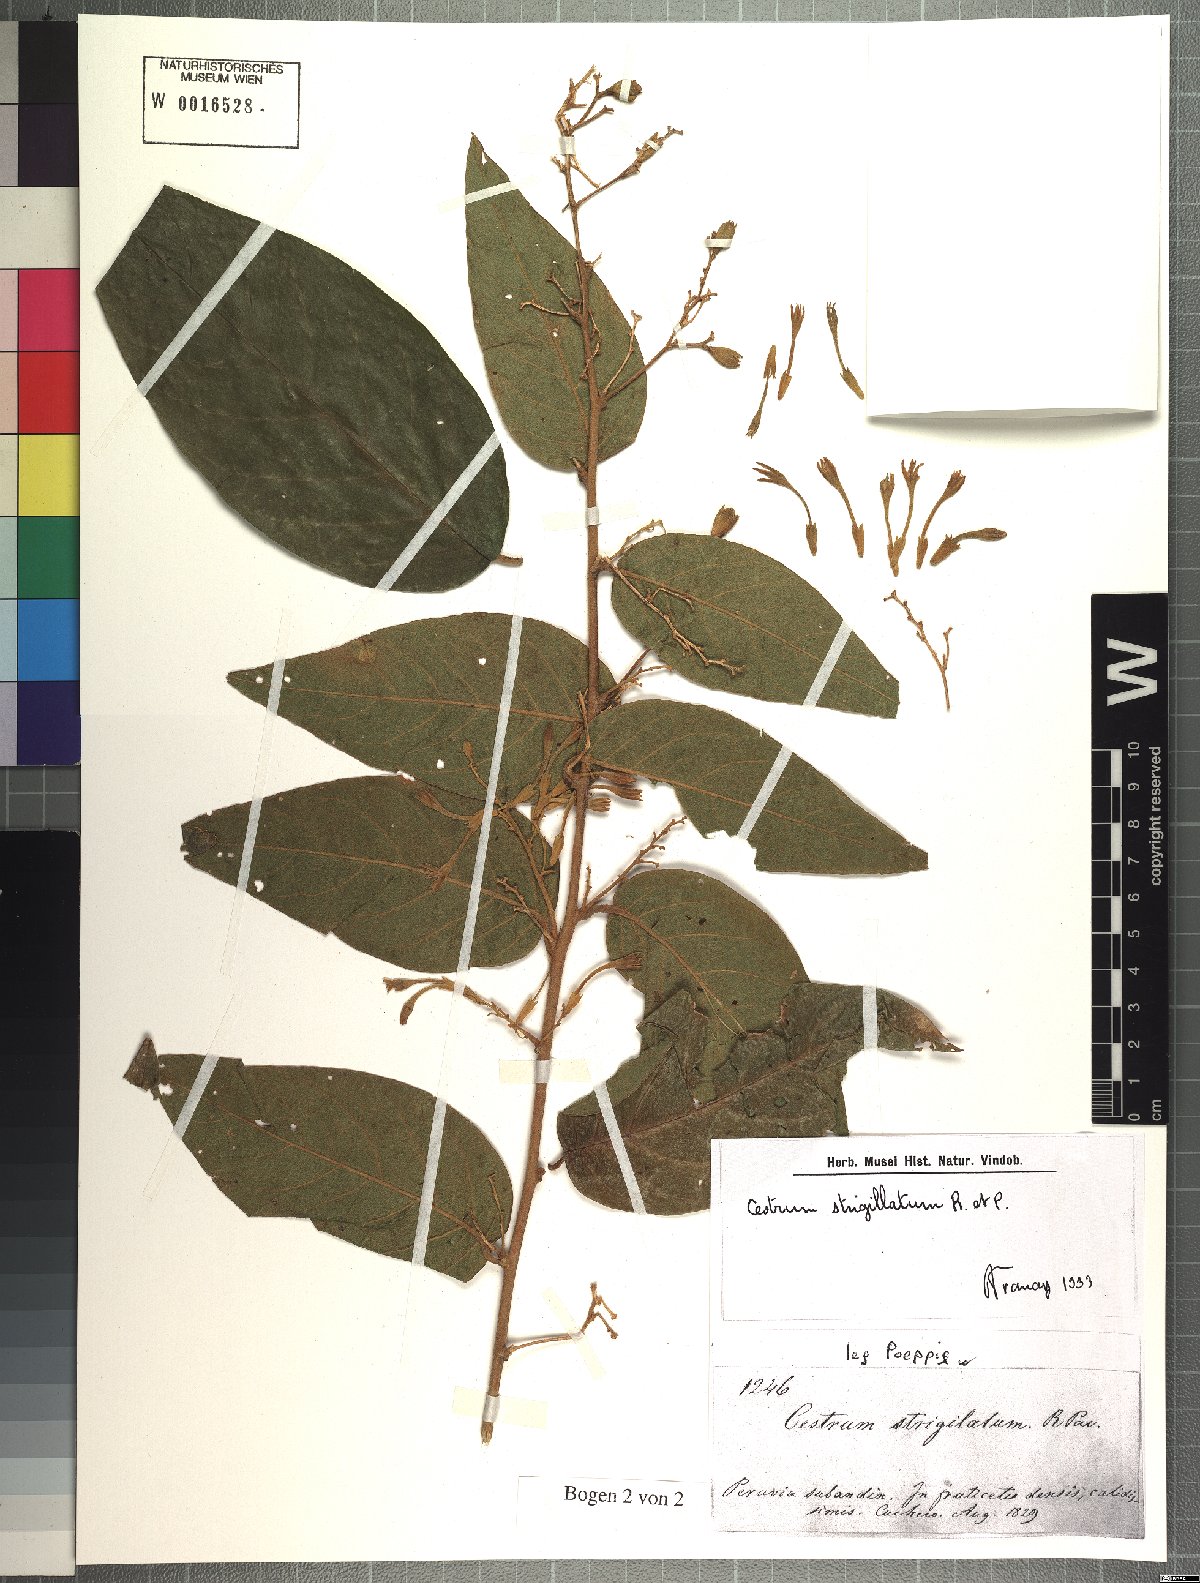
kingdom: Plantae
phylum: Tracheophyta
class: Magnoliopsida
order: Solanales
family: Solanaceae
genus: Cestrum
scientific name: Cestrum strigillatum
